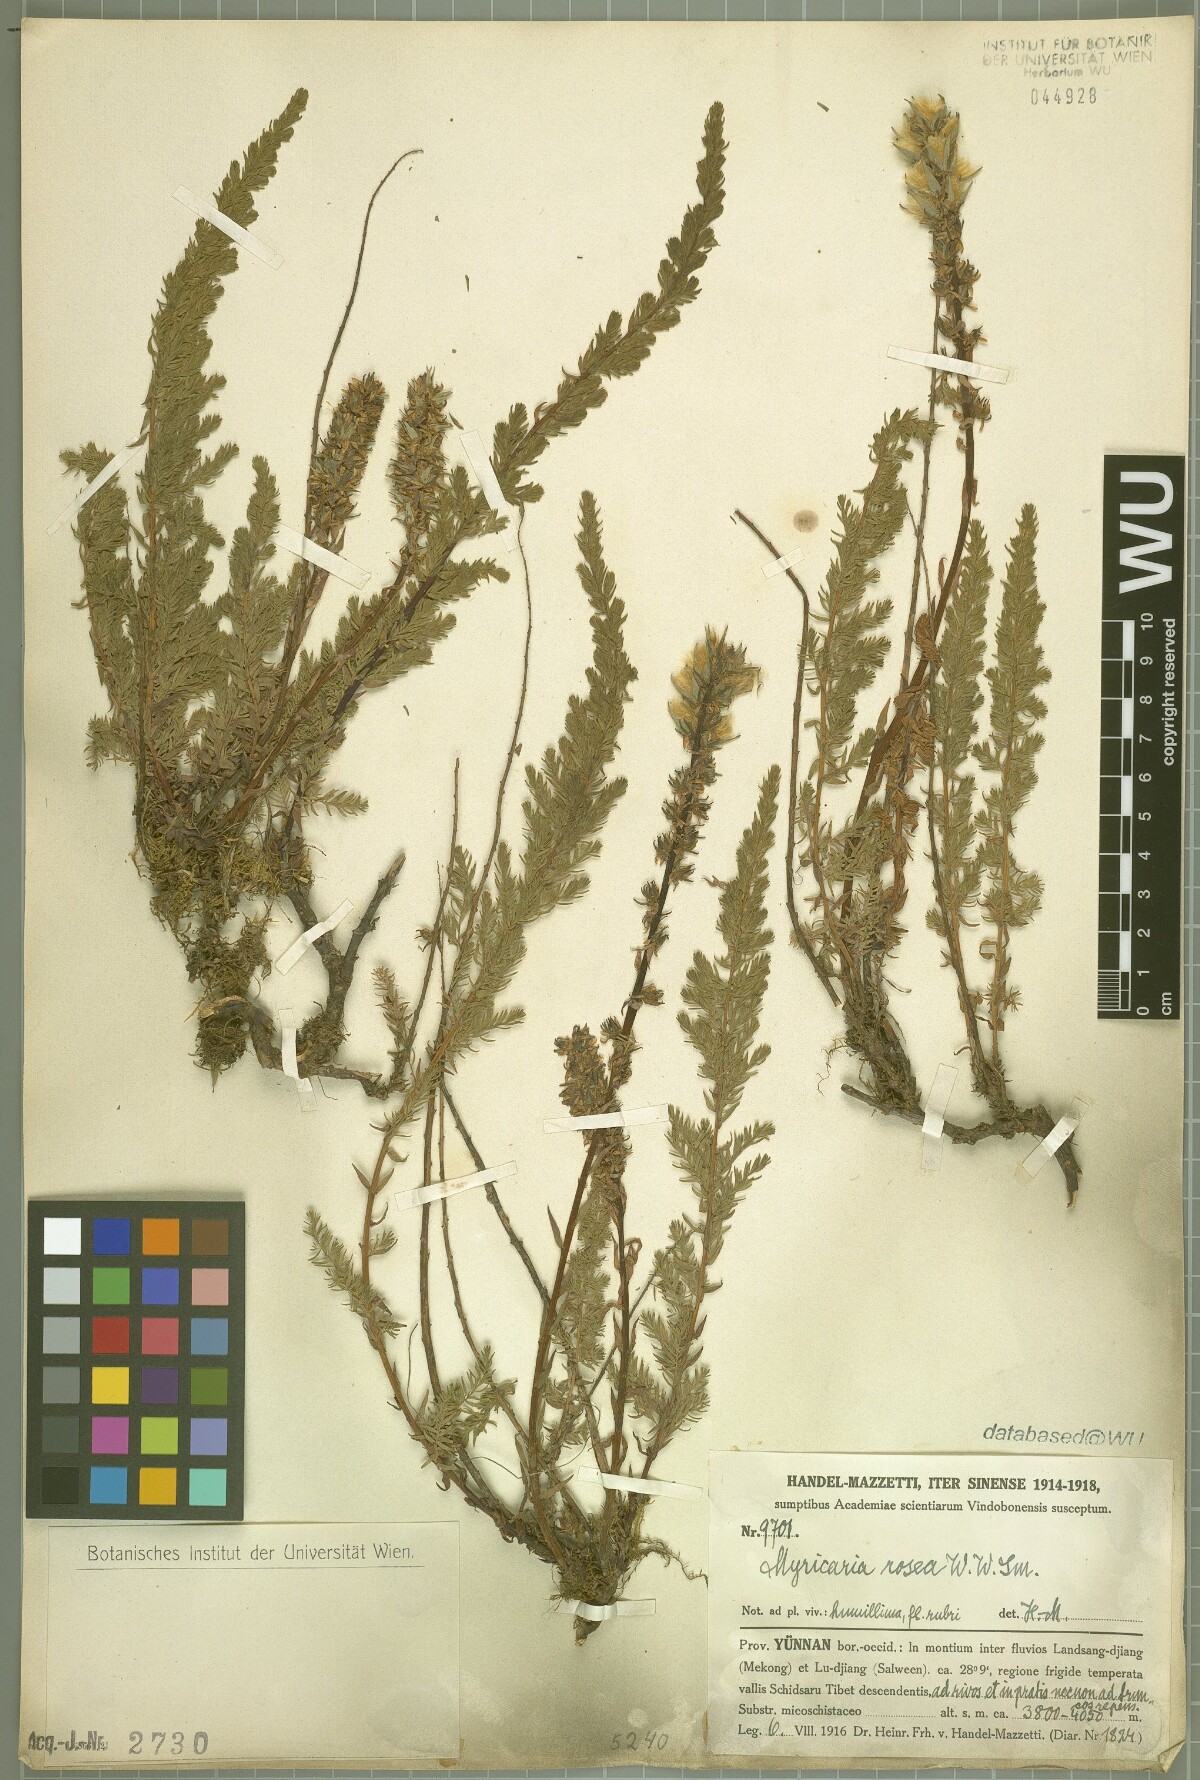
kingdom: Plantae
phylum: Tracheophyta
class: Magnoliopsida
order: Caryophyllales
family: Tamaricaceae
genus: Myricaria
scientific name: Myricaria rosea
